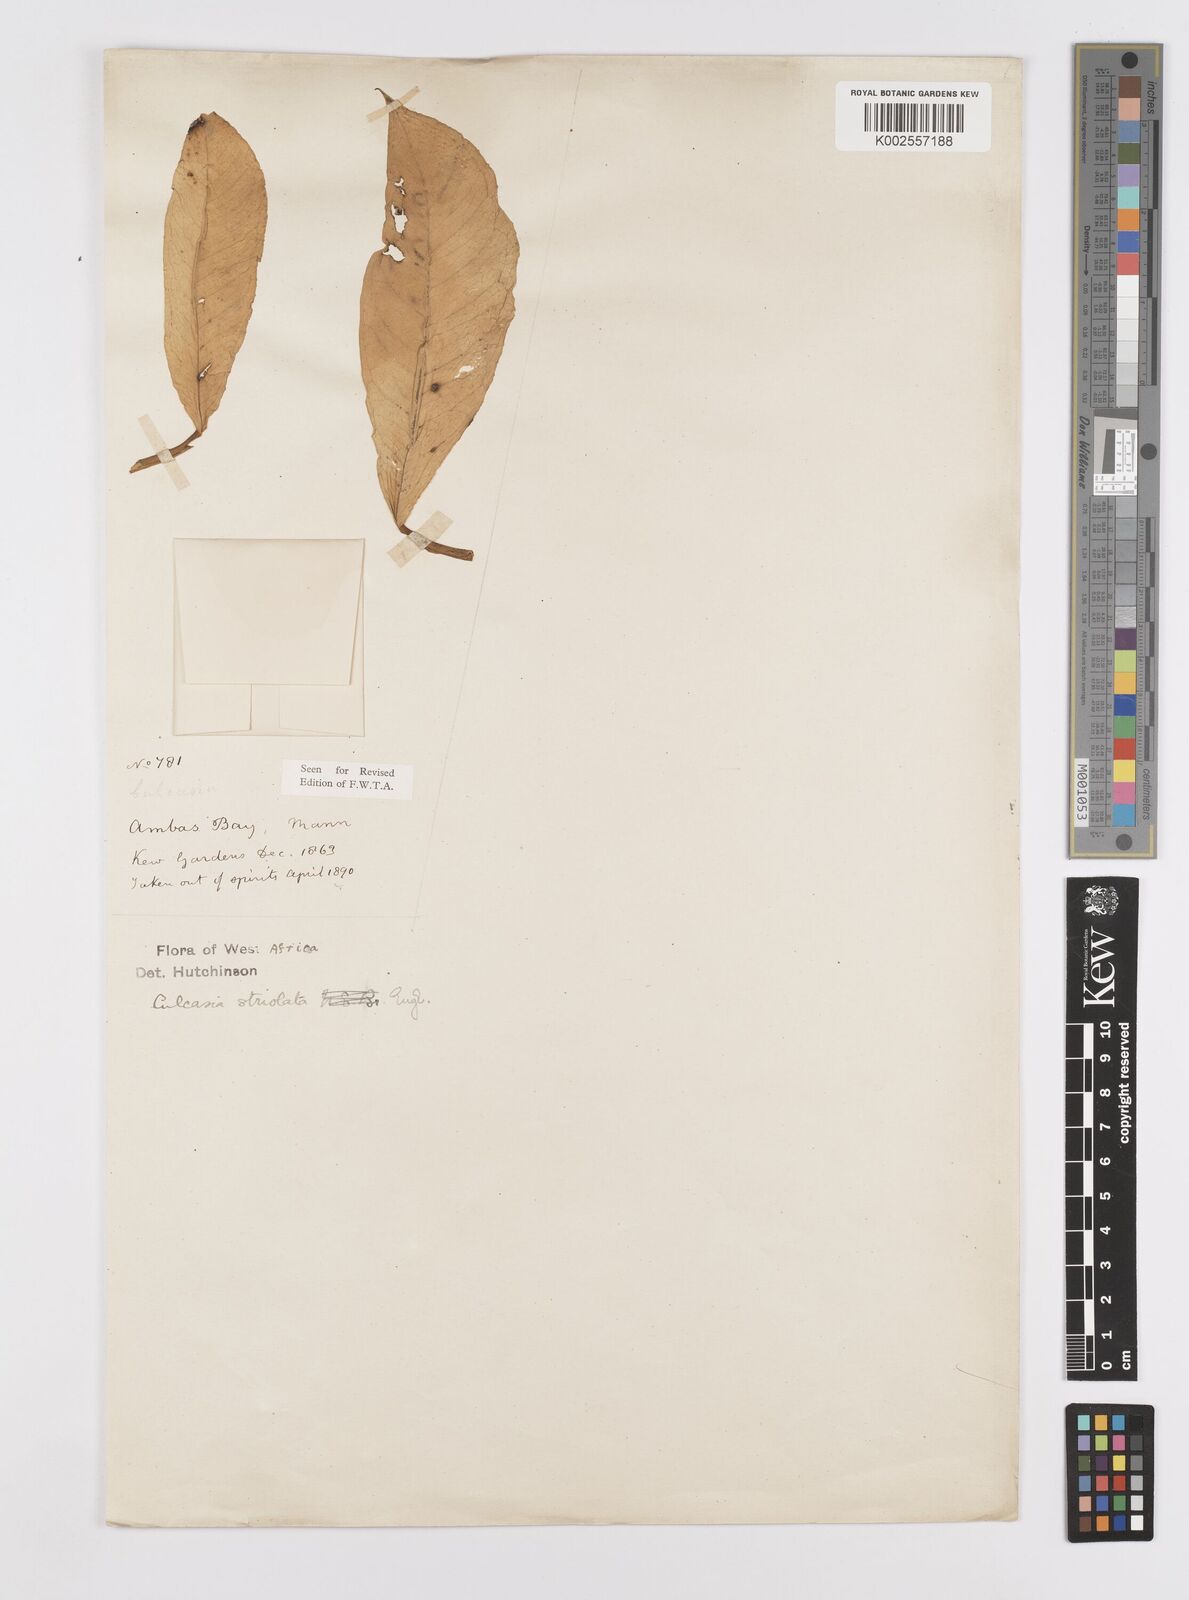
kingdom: Plantae
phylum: Tracheophyta
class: Liliopsida
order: Alismatales
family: Araceae
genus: Culcasia
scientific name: Culcasia striolata
